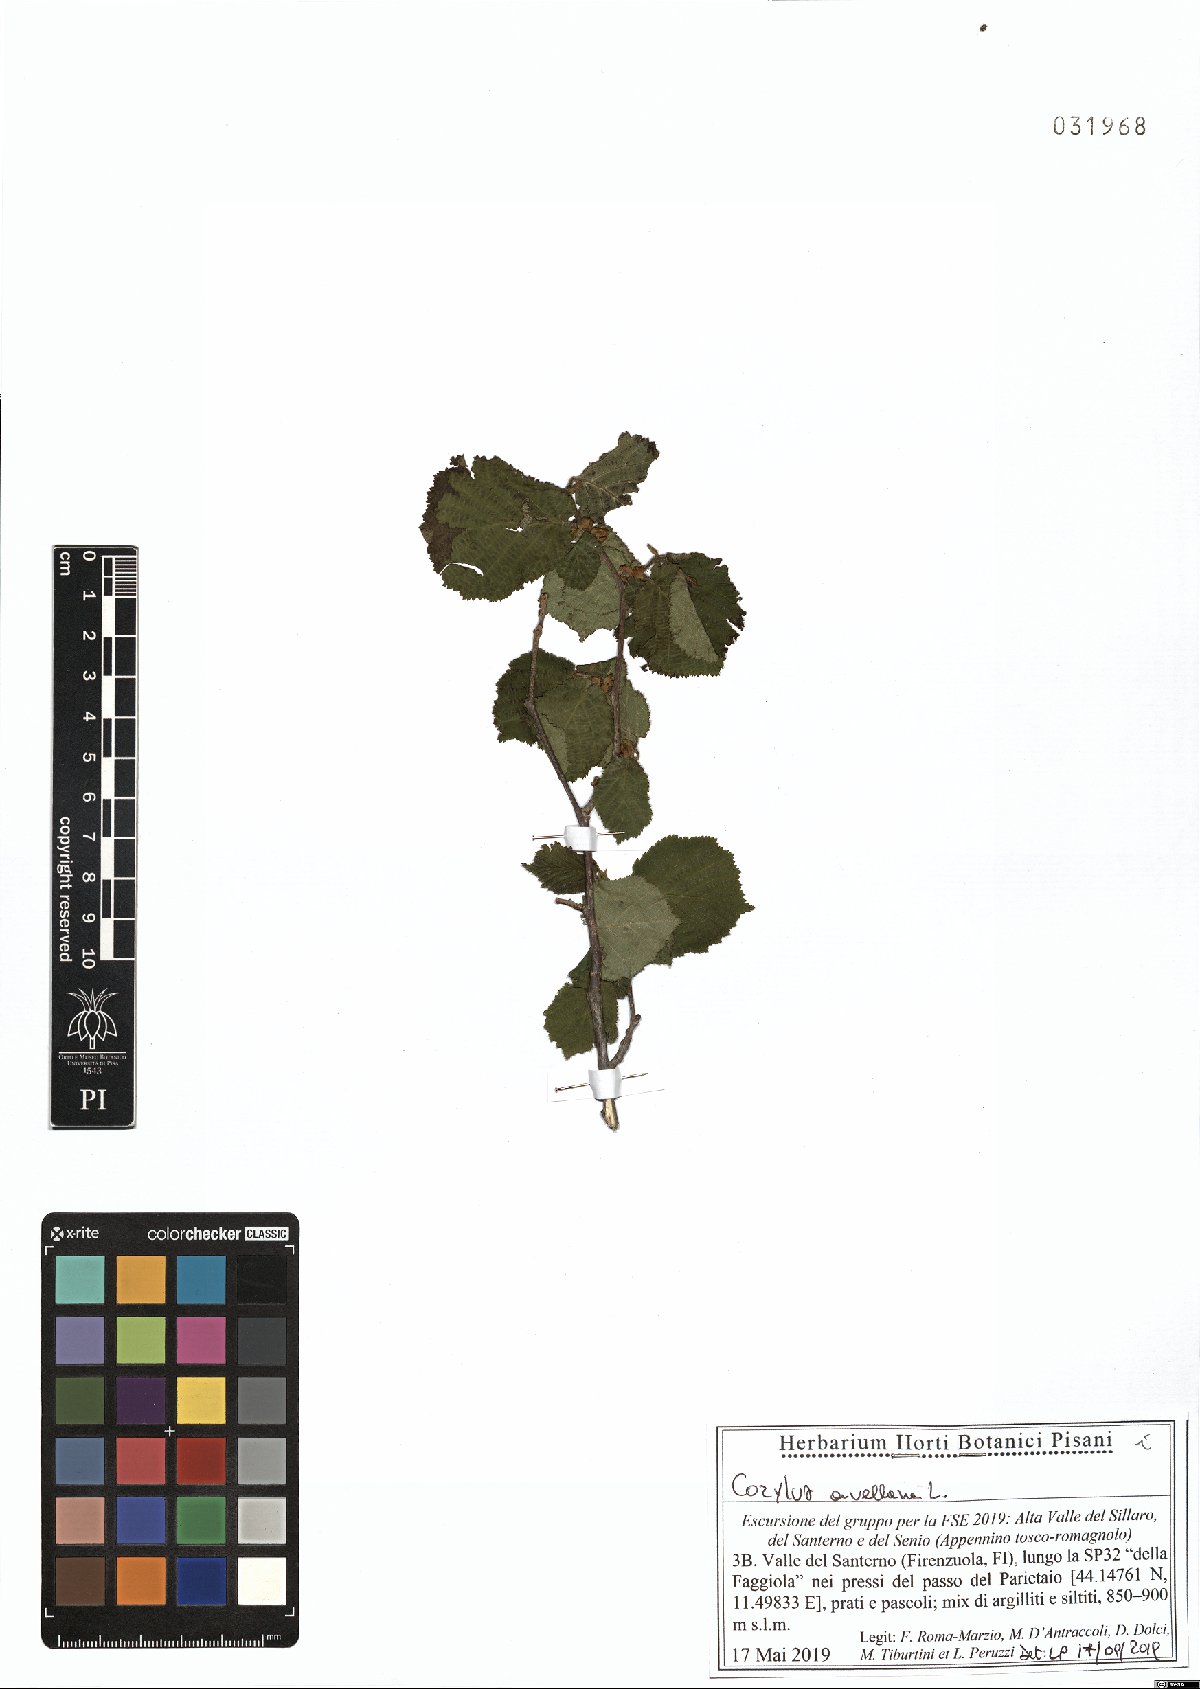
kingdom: Plantae
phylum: Tracheophyta
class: Magnoliopsida
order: Fagales
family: Betulaceae
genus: Corylus
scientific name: Corylus avellana
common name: European hazel
